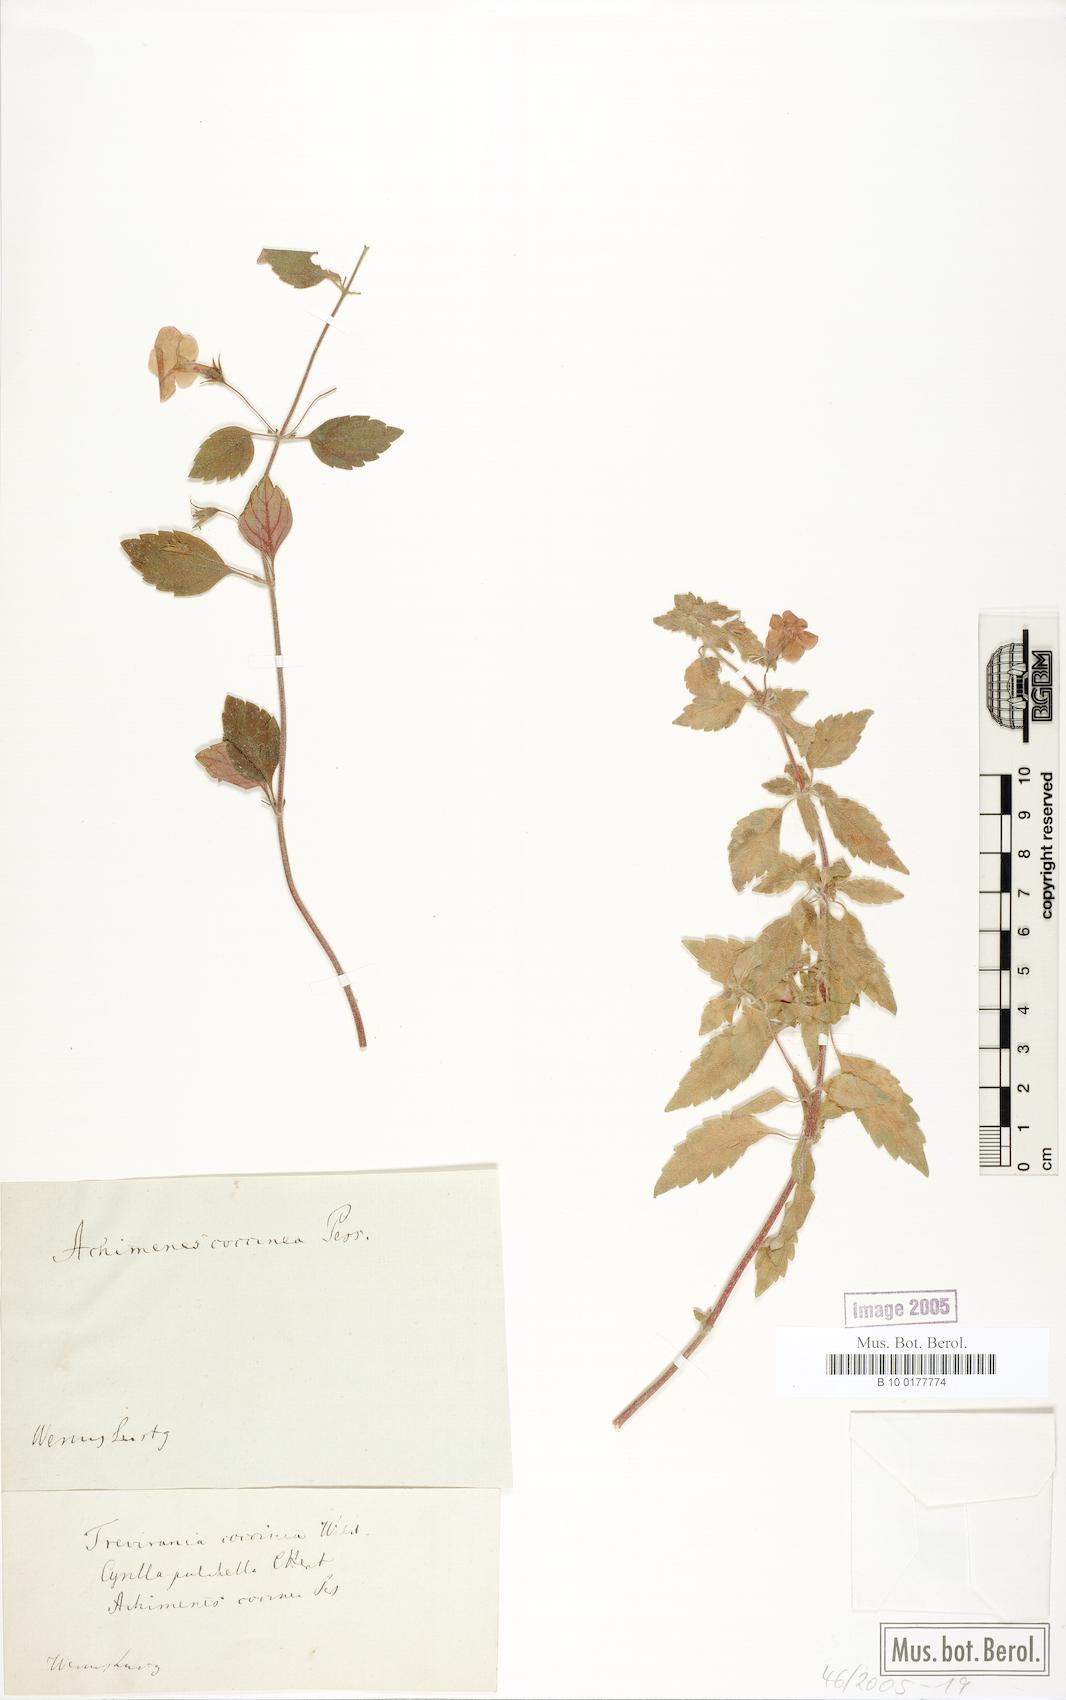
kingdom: Plantae
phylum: Tracheophyta
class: Magnoliopsida
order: Lamiales
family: Gesneriaceae
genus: Achimenes
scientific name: Achimenes erecta
